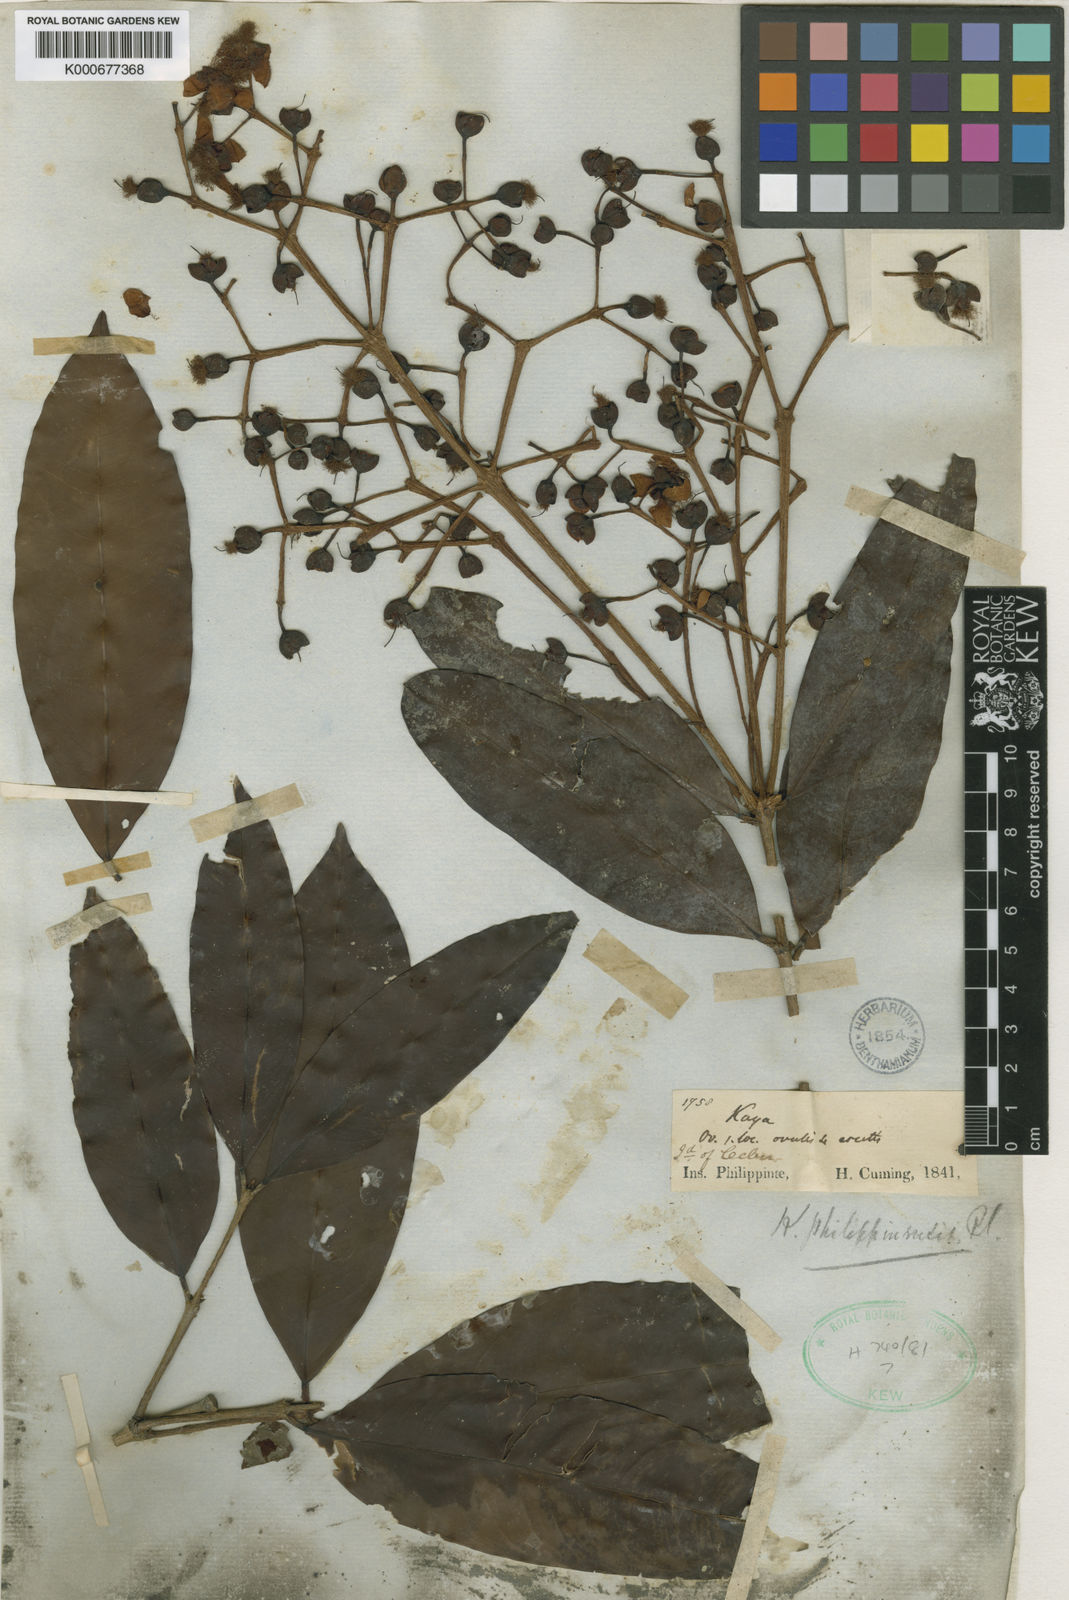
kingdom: Plantae
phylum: Tracheophyta
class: Magnoliopsida
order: Malpighiales
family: Calophyllaceae
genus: Kayea
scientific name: Kayea paniculata
